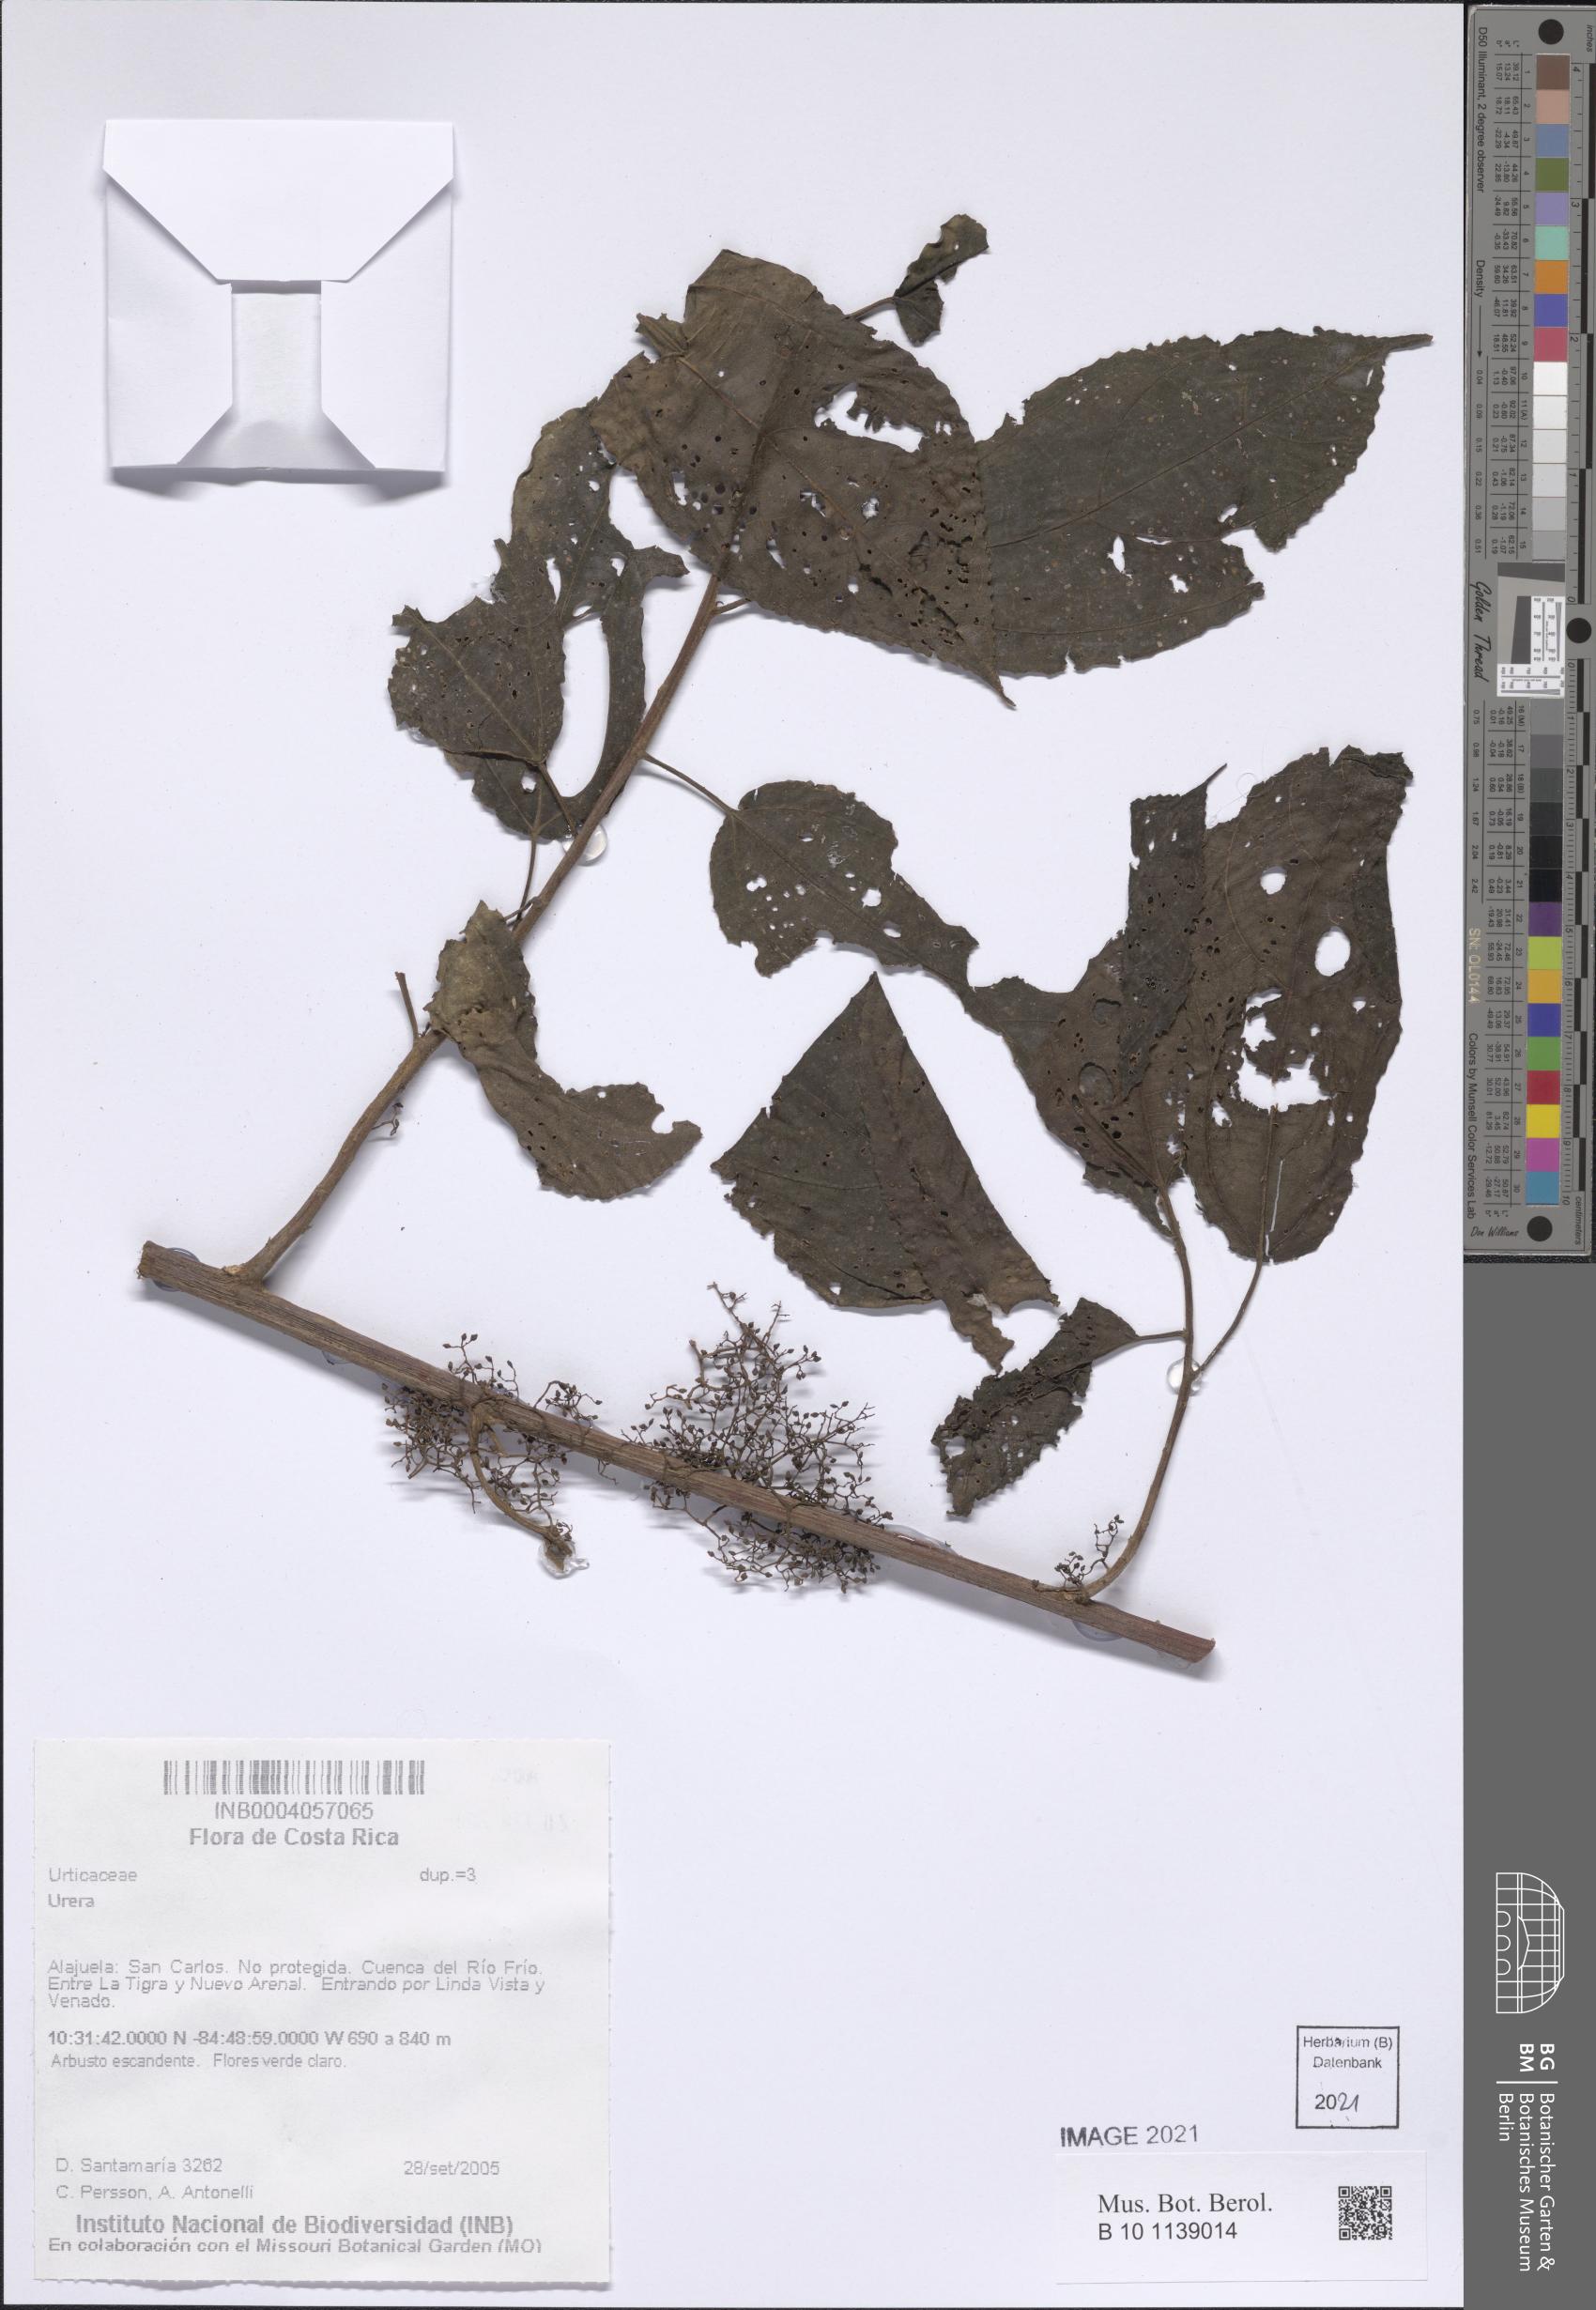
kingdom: Plantae
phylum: Tracheophyta
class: Magnoliopsida
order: Rosales
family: Urticaceae
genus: Urera
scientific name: Urera
